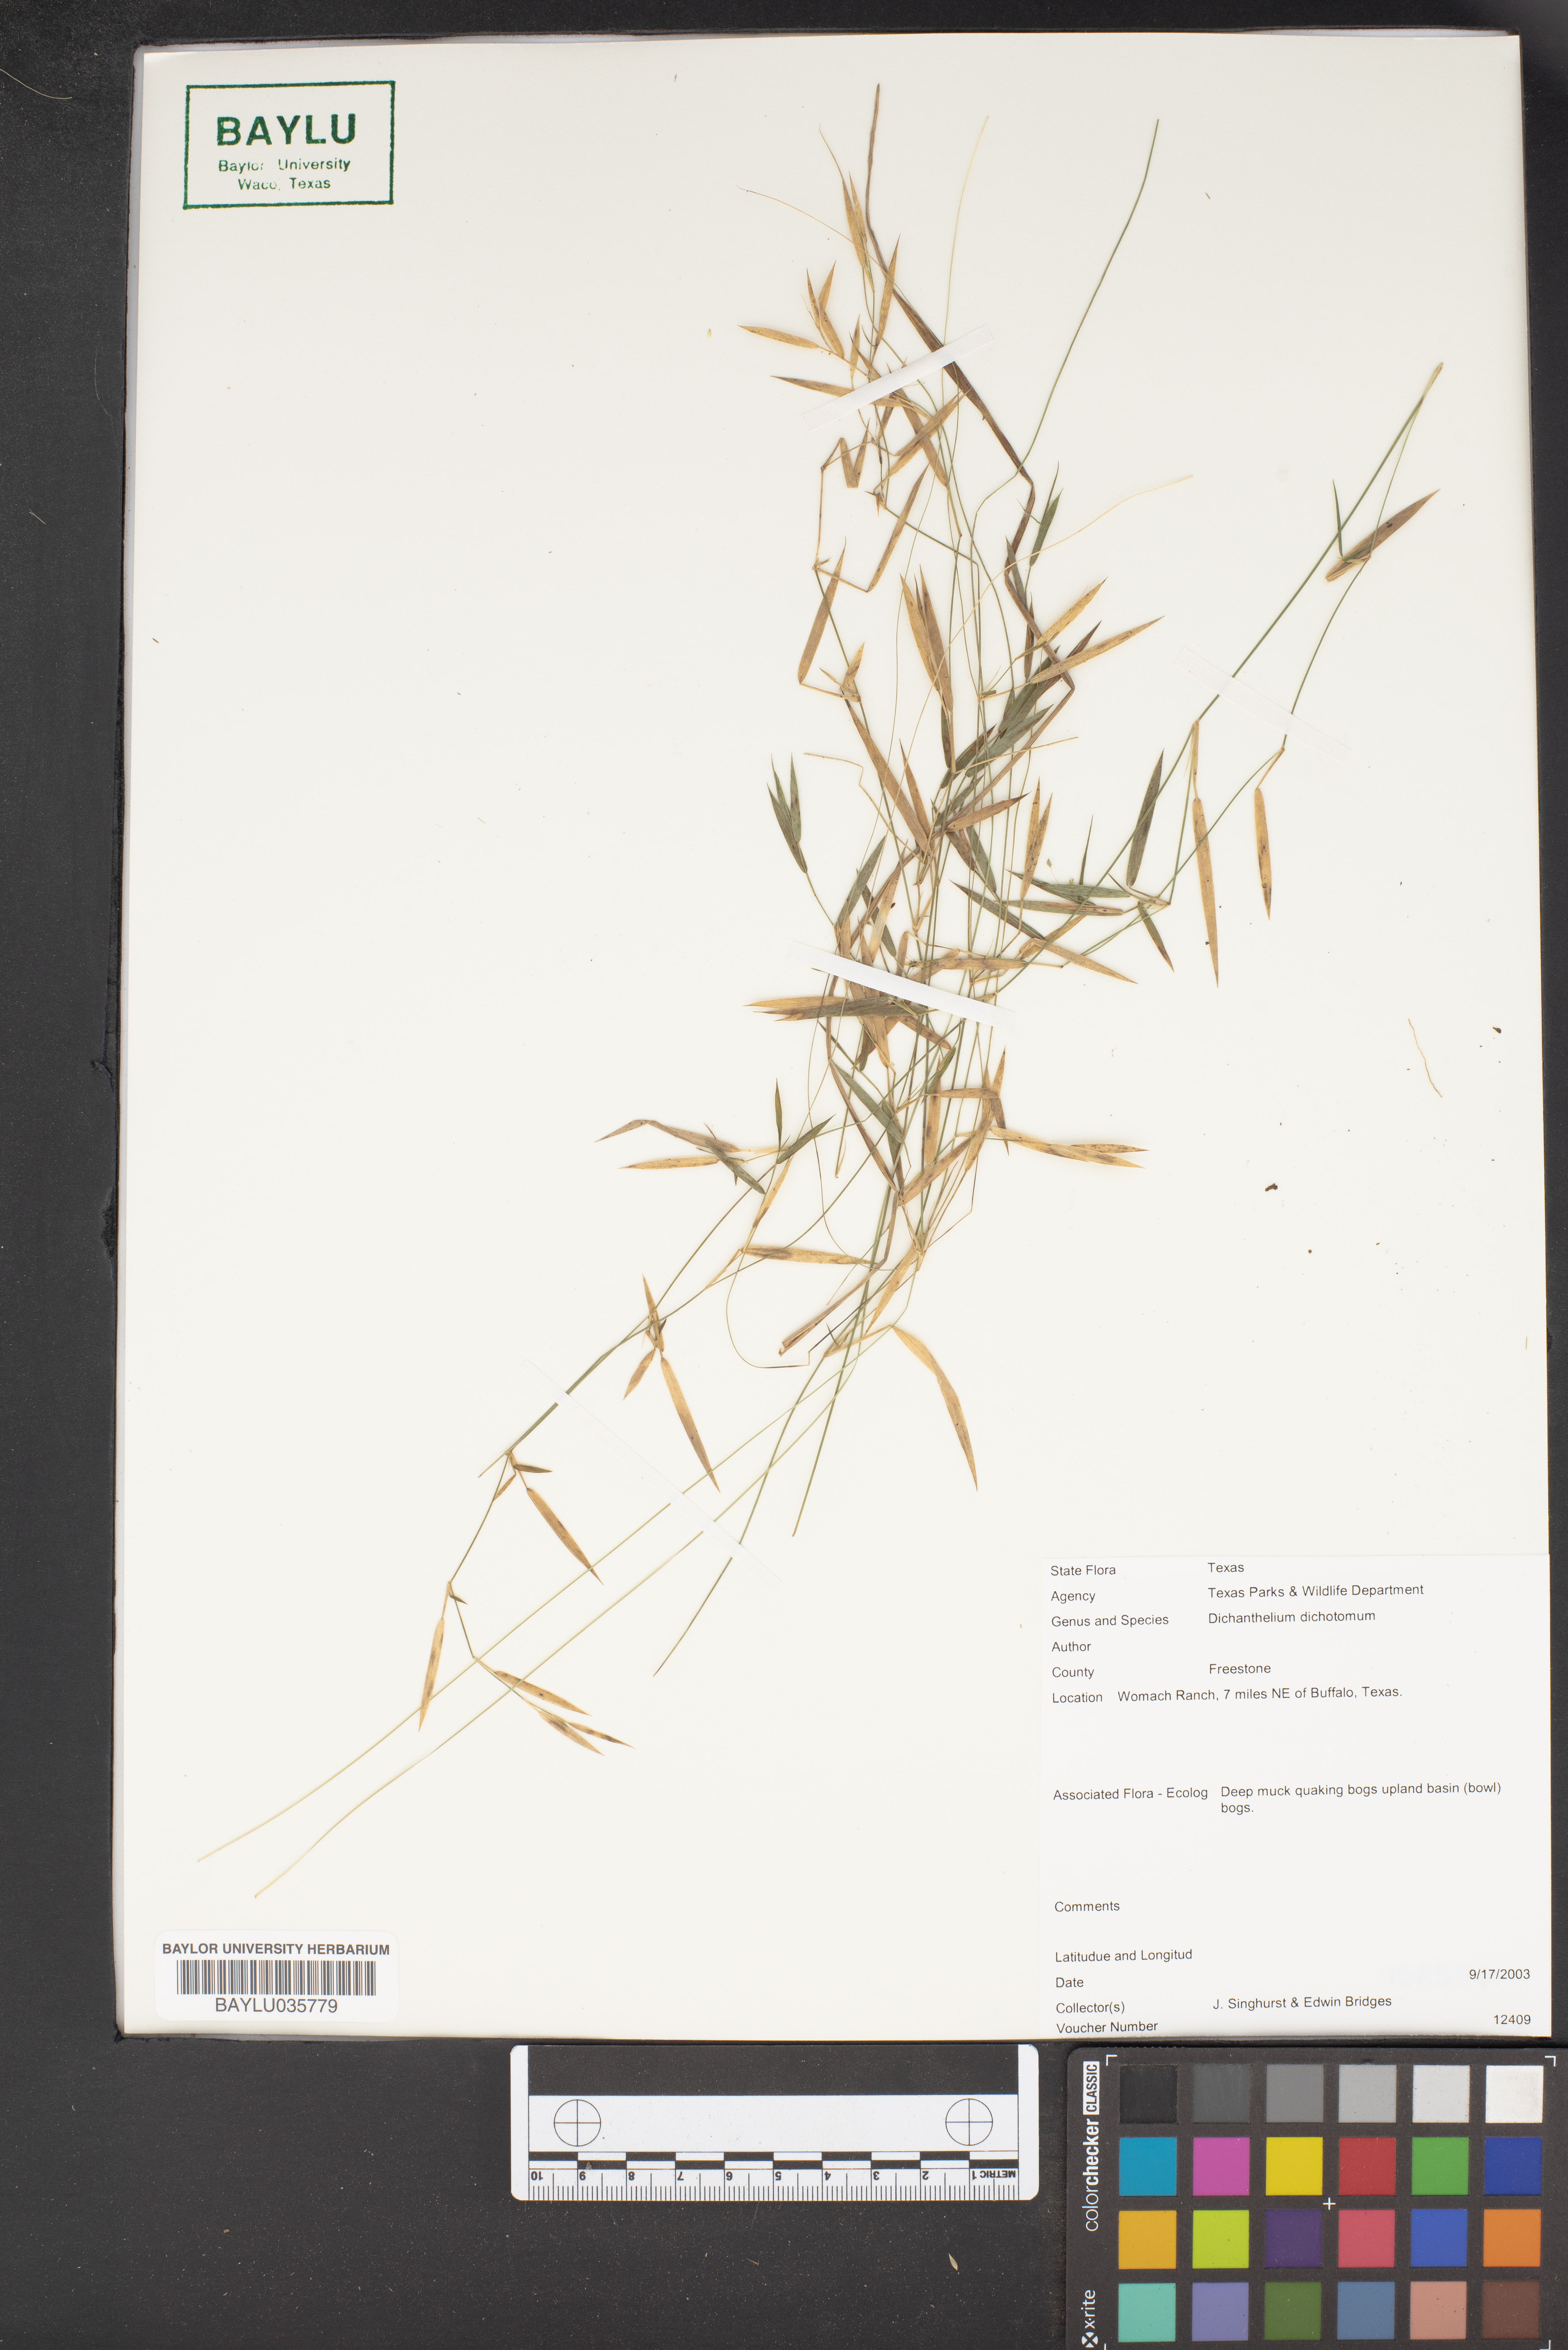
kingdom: Plantae
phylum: Tracheophyta
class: Liliopsida
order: Poales
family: Poaceae
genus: Dichanthelium
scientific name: Dichanthelium dichotomum
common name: Cypress panicgrass
